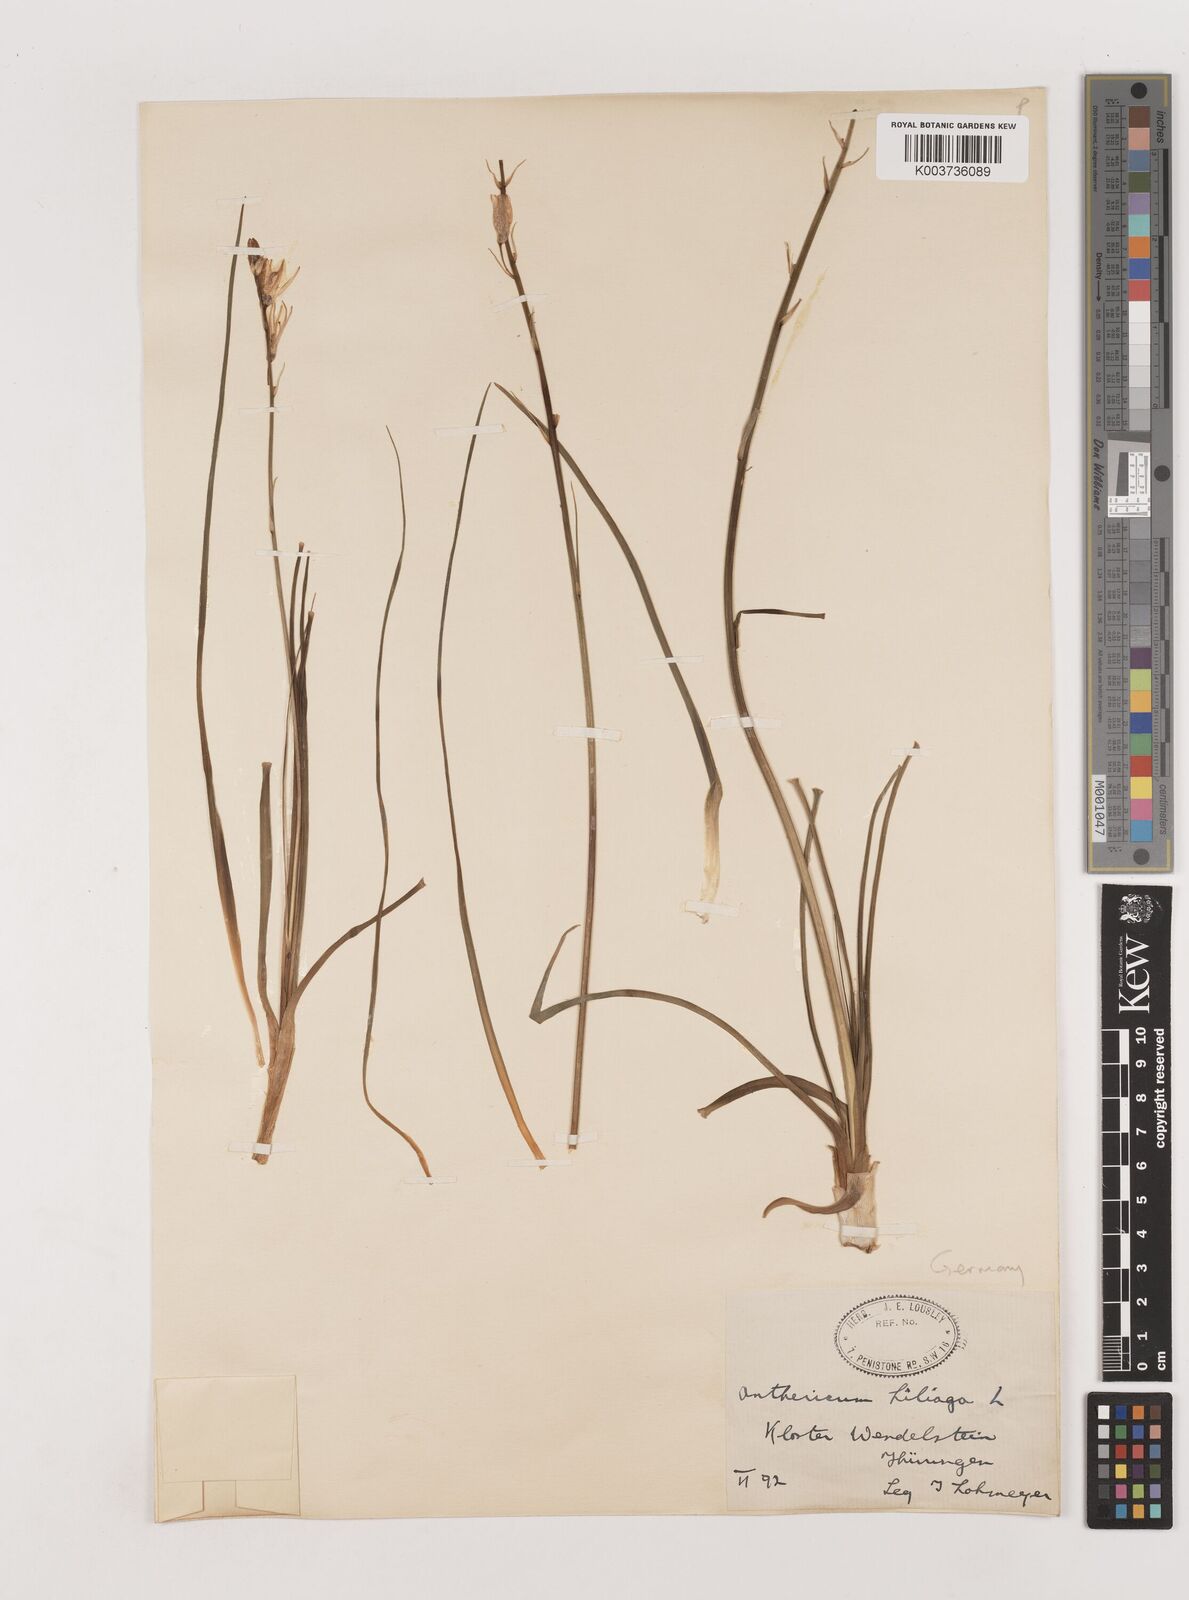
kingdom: Plantae
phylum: Tracheophyta
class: Liliopsida
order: Asparagales
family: Asparagaceae
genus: Anthericum
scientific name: Anthericum liliago
